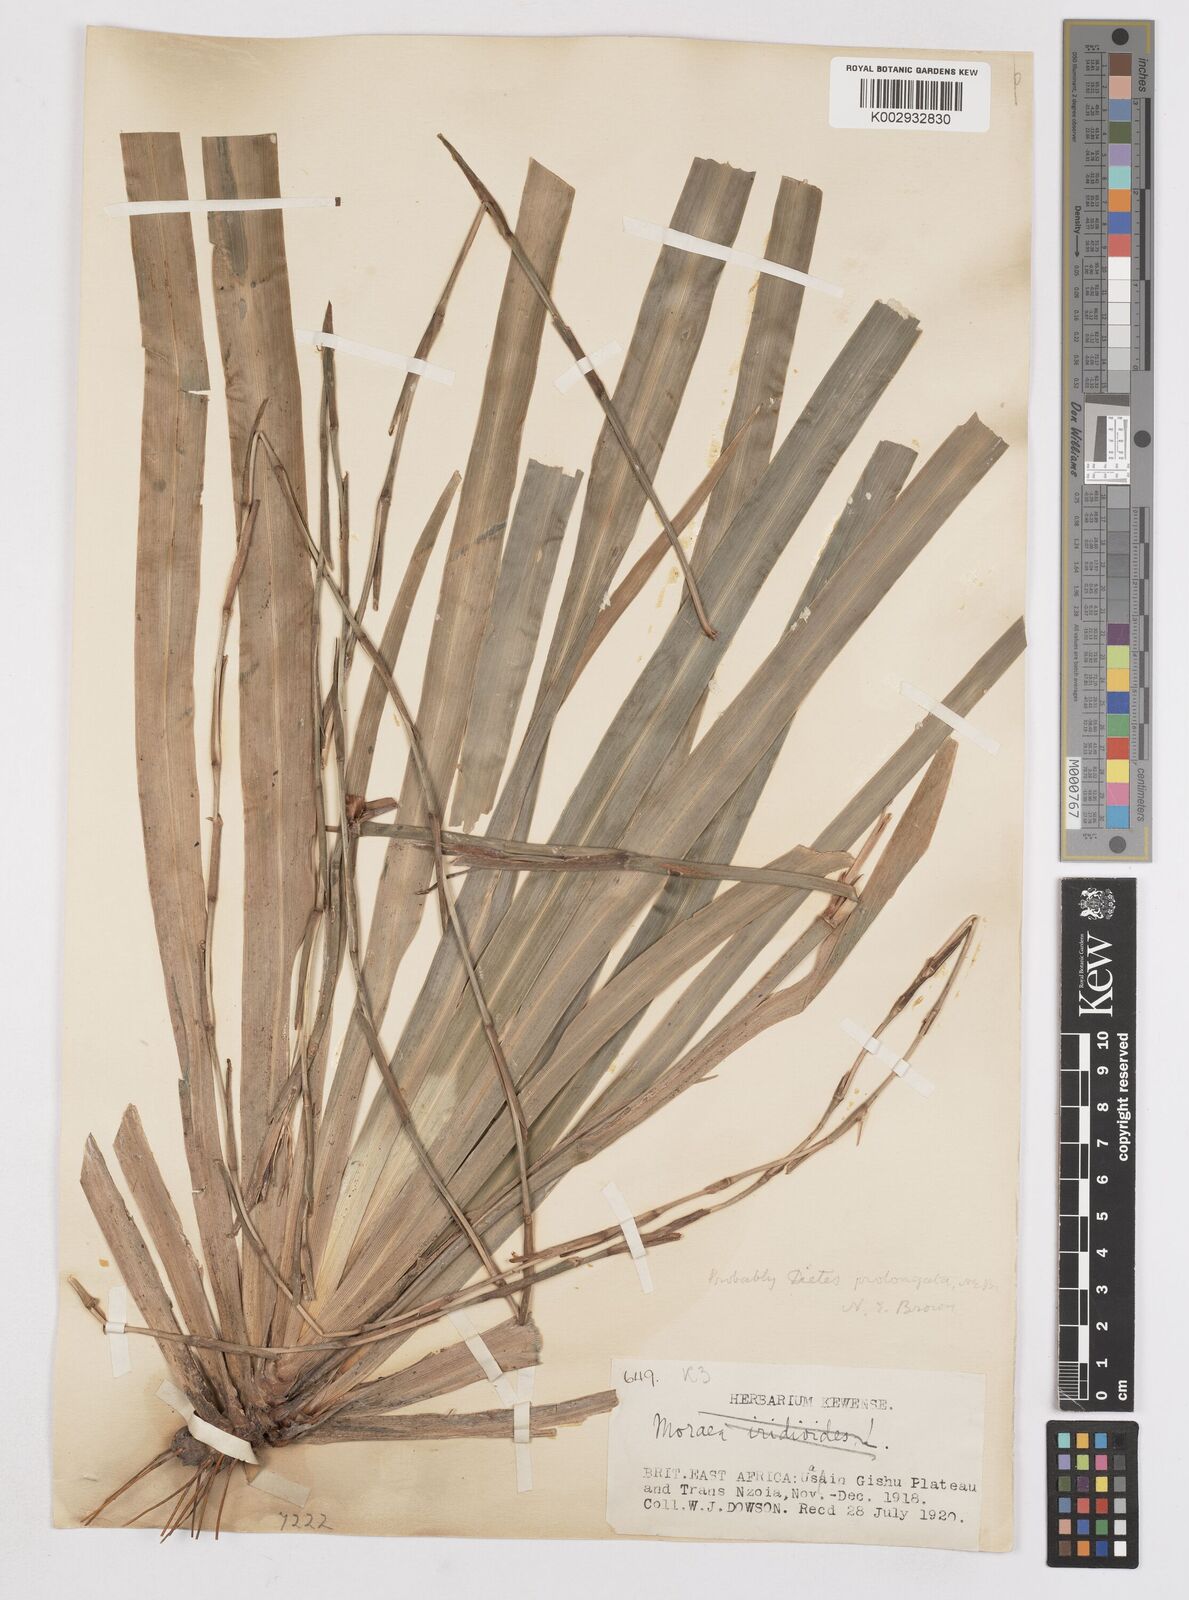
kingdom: Plantae
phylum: Tracheophyta
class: Liliopsida
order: Asparagales
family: Iridaceae
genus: Dietes
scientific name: Dietes iridioides
